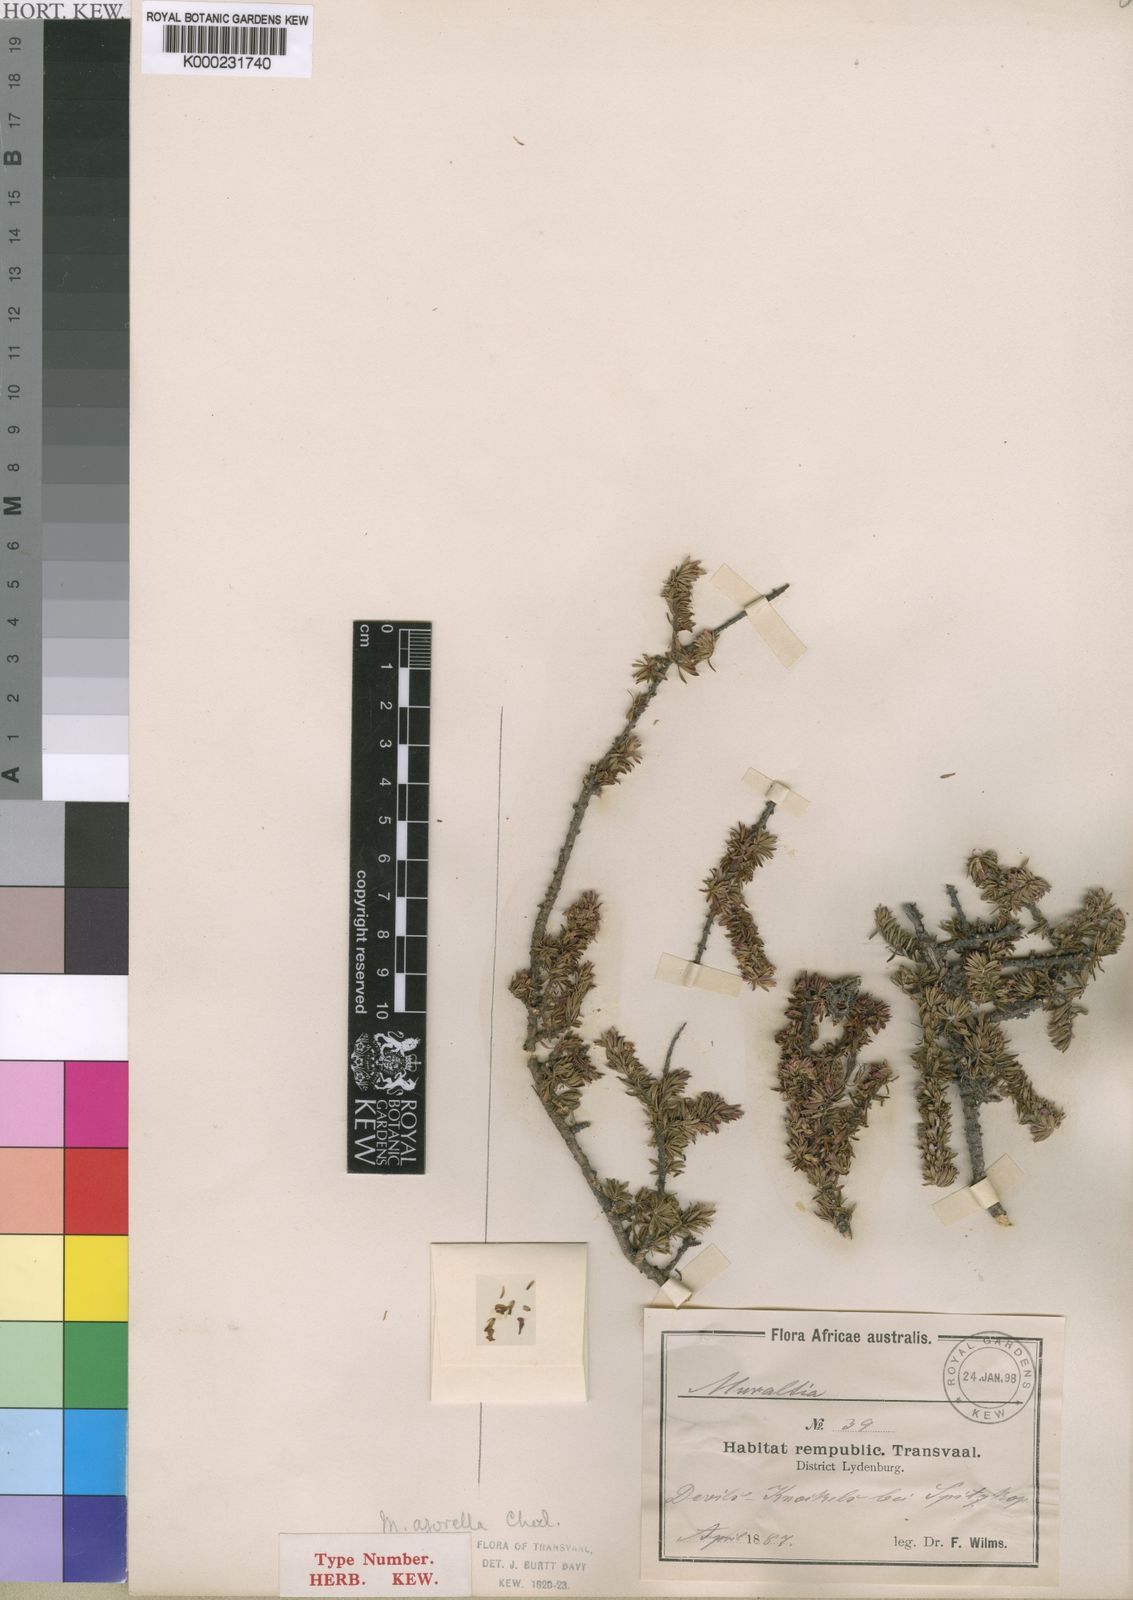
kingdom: Plantae
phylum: Tracheophyta
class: Magnoliopsida
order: Fabales
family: Polygalaceae
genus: Muraltia
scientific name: Muraltia empetroides
